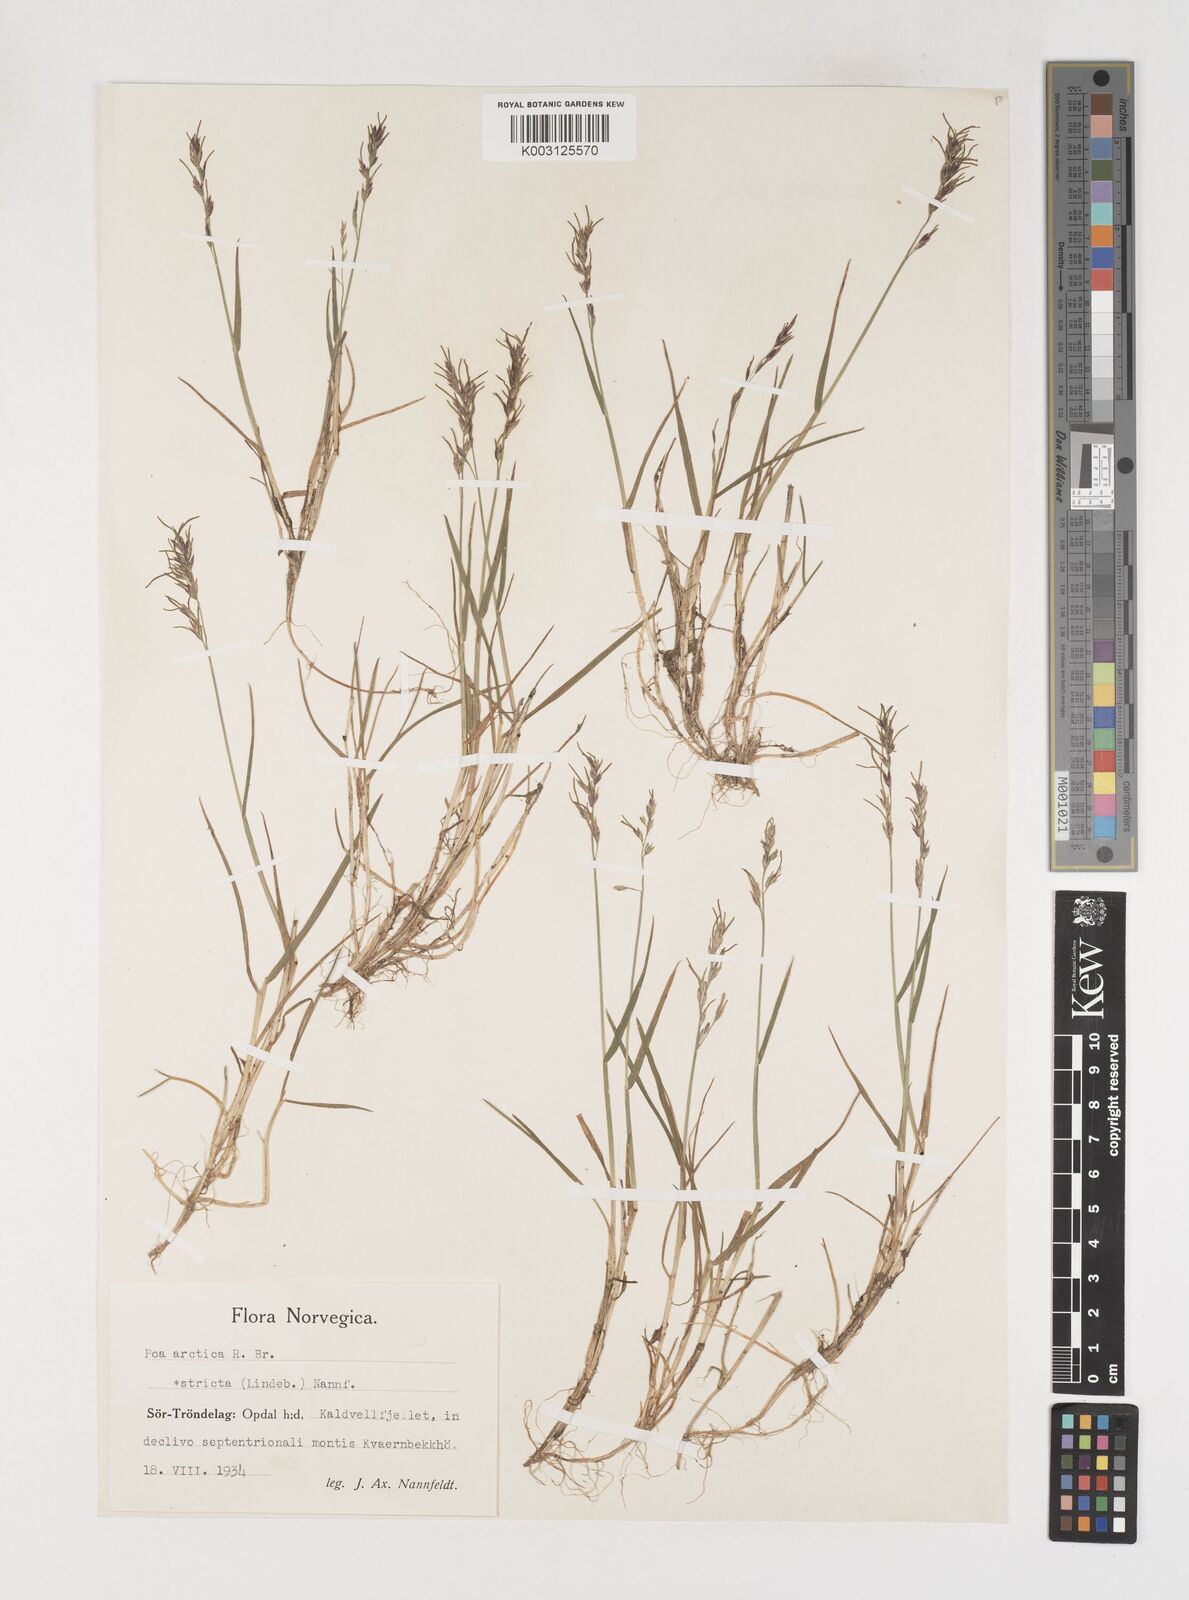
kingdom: Plantae
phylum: Tracheophyta
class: Liliopsida
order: Poales
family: Poaceae
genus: Poa
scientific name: Poa arctica
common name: Arctic bluegrass
